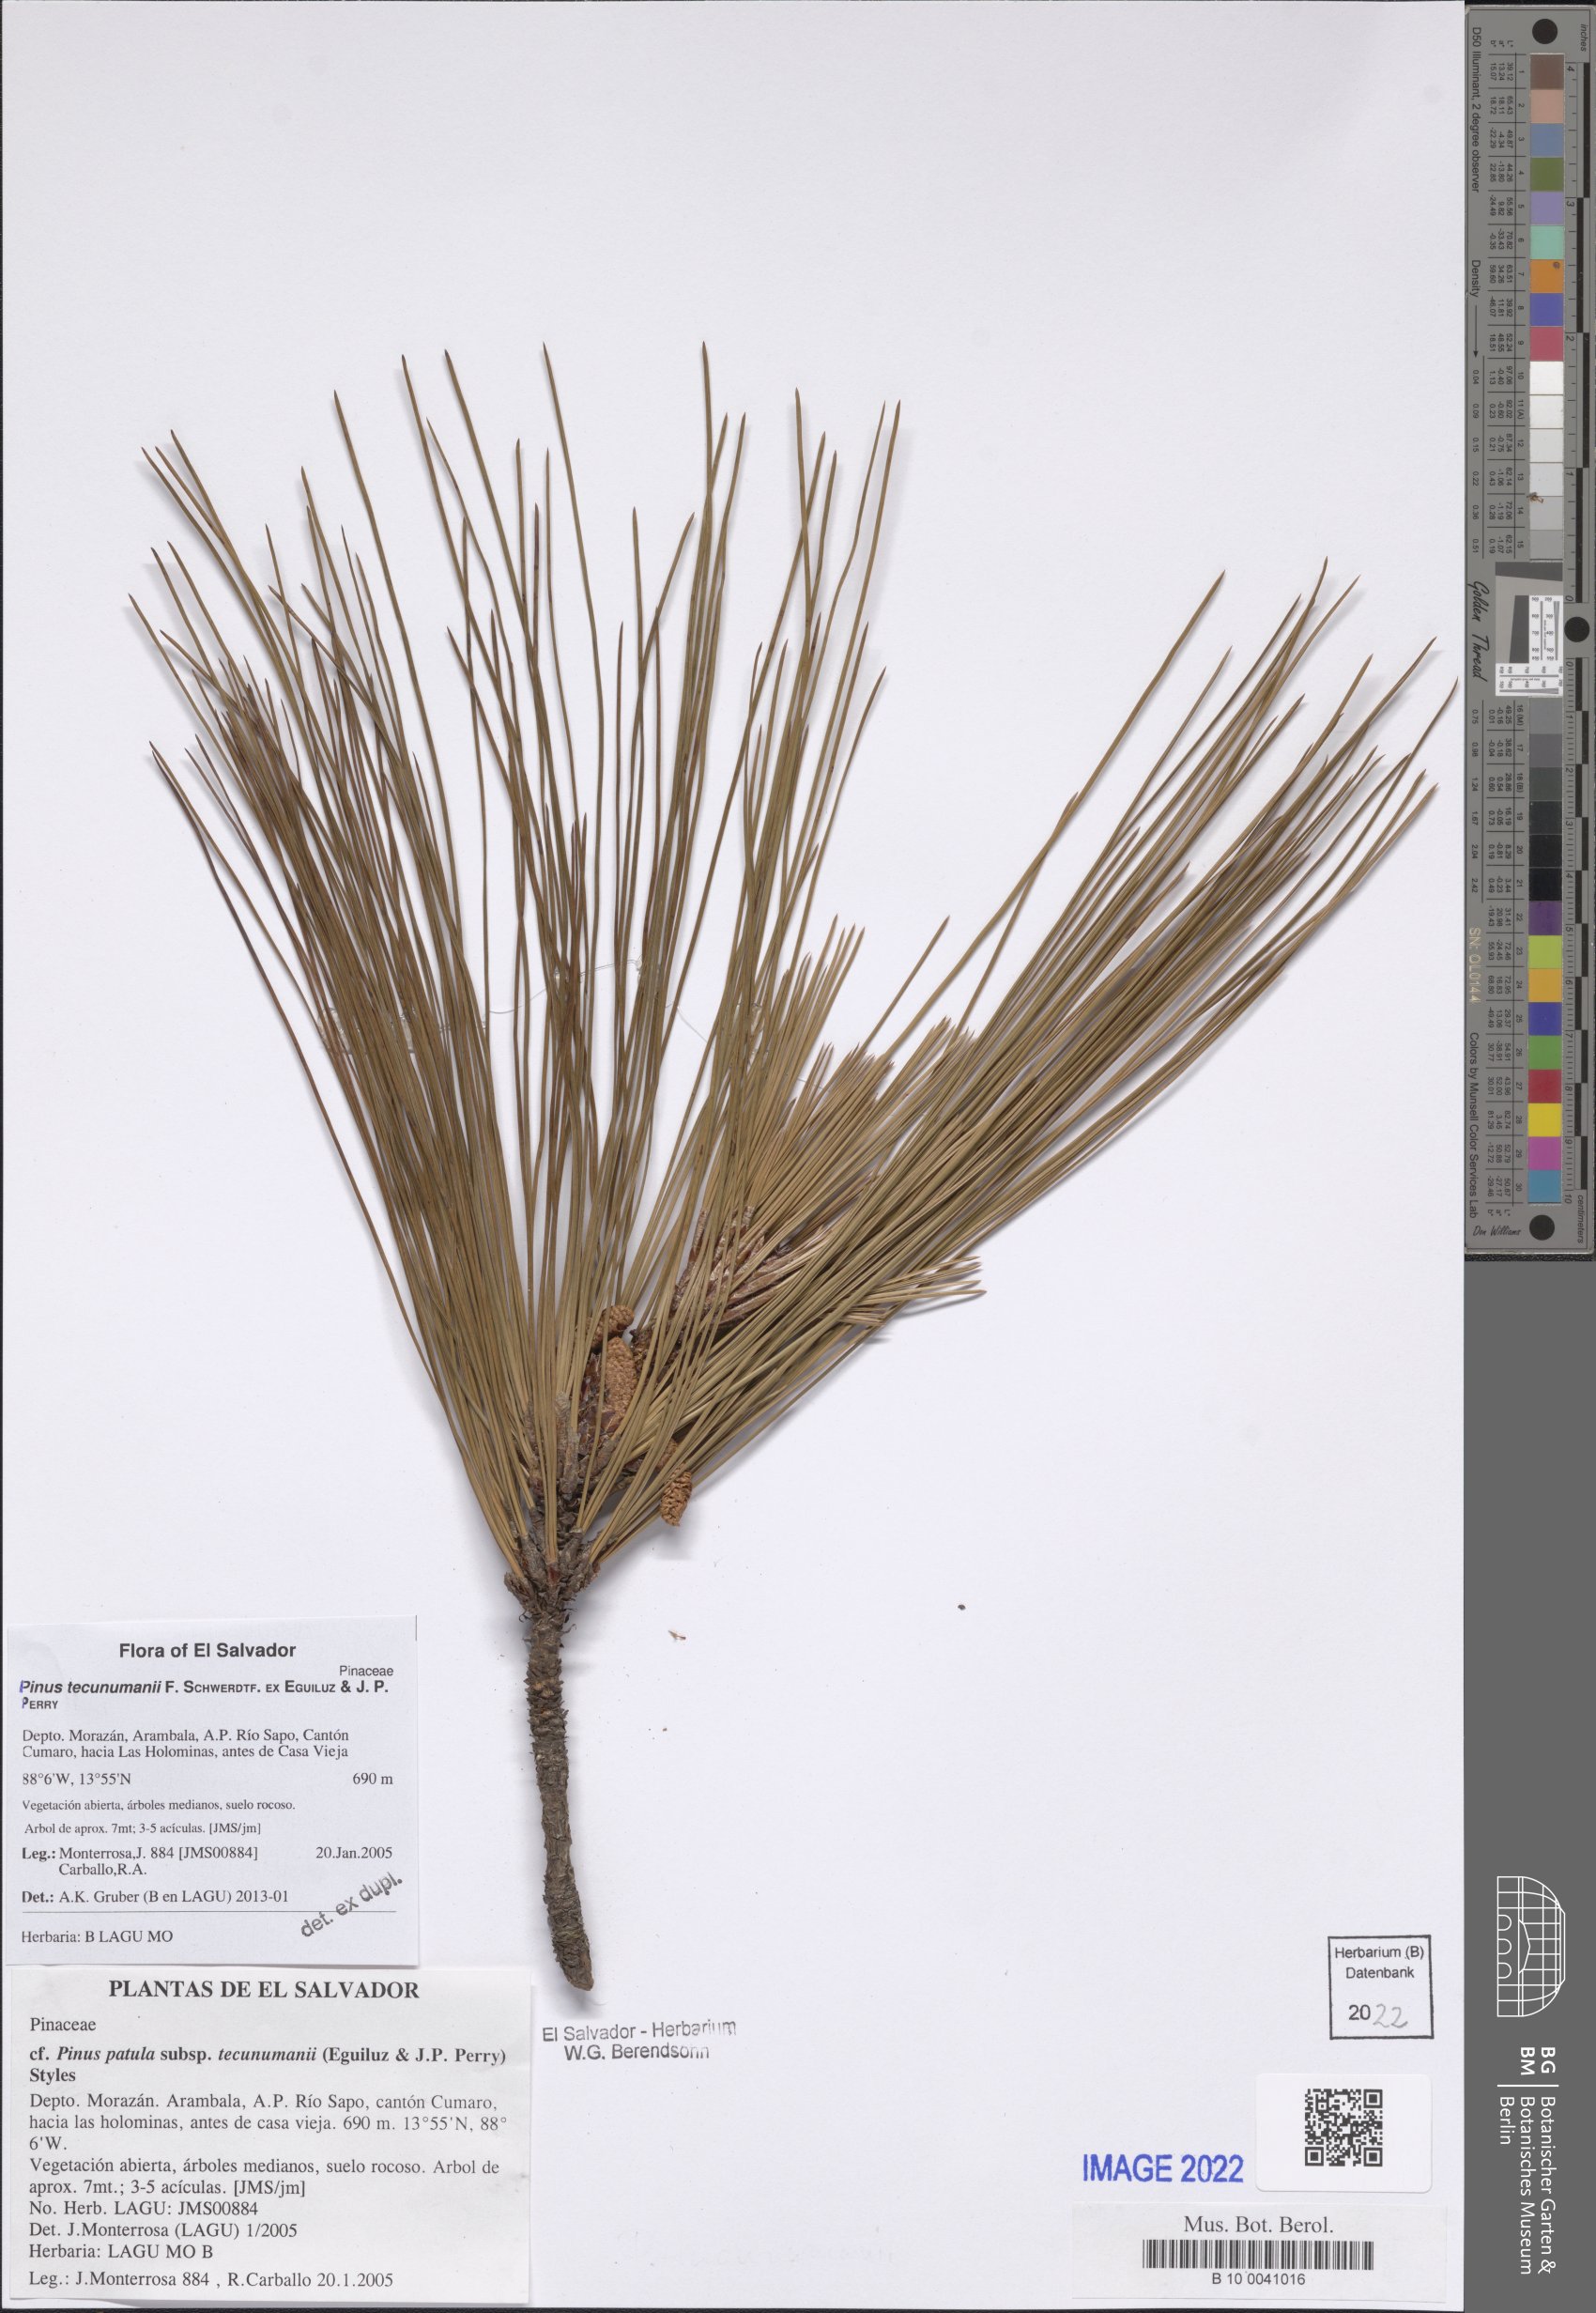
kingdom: Plantae
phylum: Tracheophyta
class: Pinopsida
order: Pinales
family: Pinaceae
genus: Pinus
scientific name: Pinus tecunumanii
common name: Schwerdtfeger's pine
